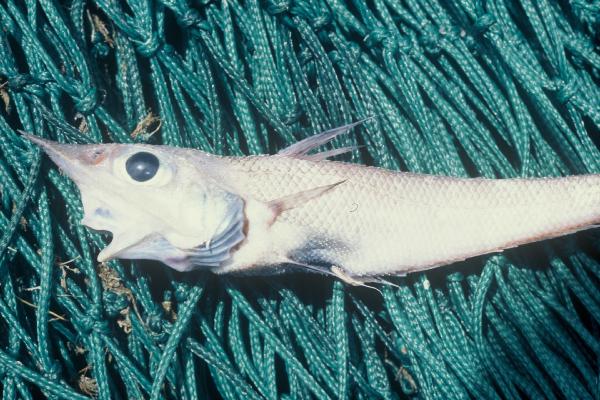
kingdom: Animalia
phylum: Chordata
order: Gadiformes
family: Macrouridae
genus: Coelorinchus
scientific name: Coelorinchus braueri
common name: Shovel-nose rattail
